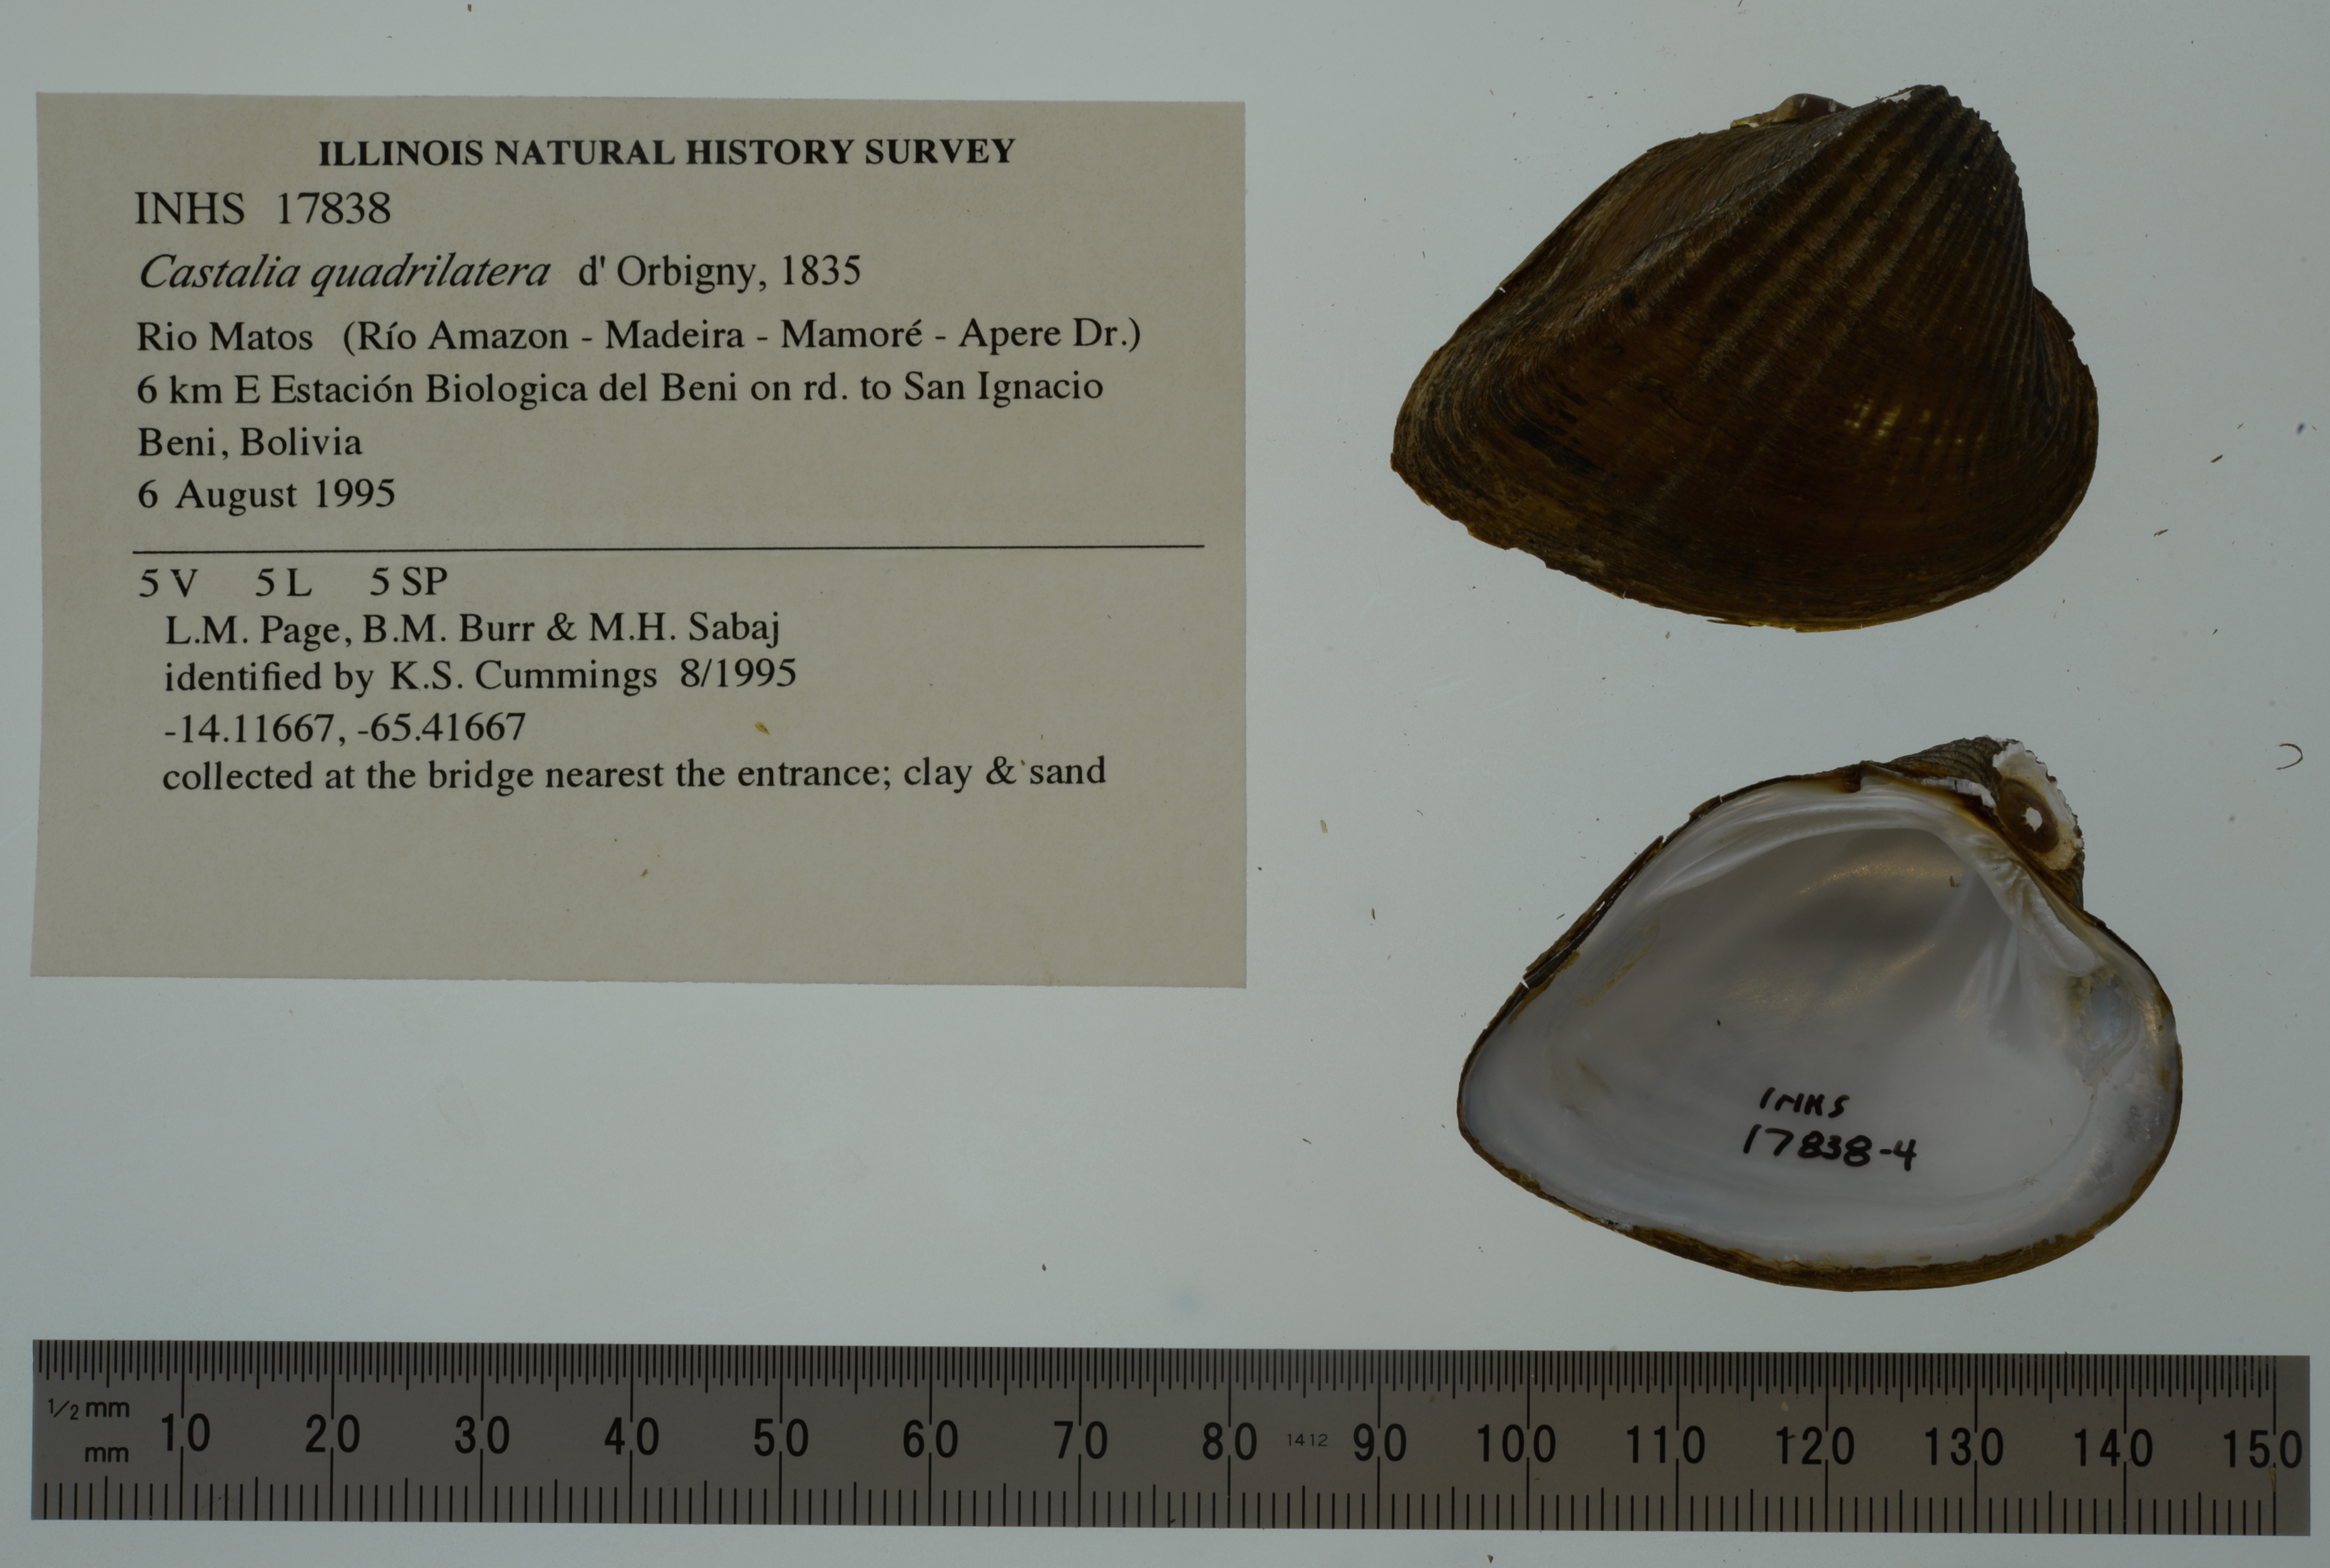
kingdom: Animalia
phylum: Mollusca
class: Bivalvia
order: Unionida
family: Hyriidae
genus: Castalia
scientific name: Castalia ambigua
